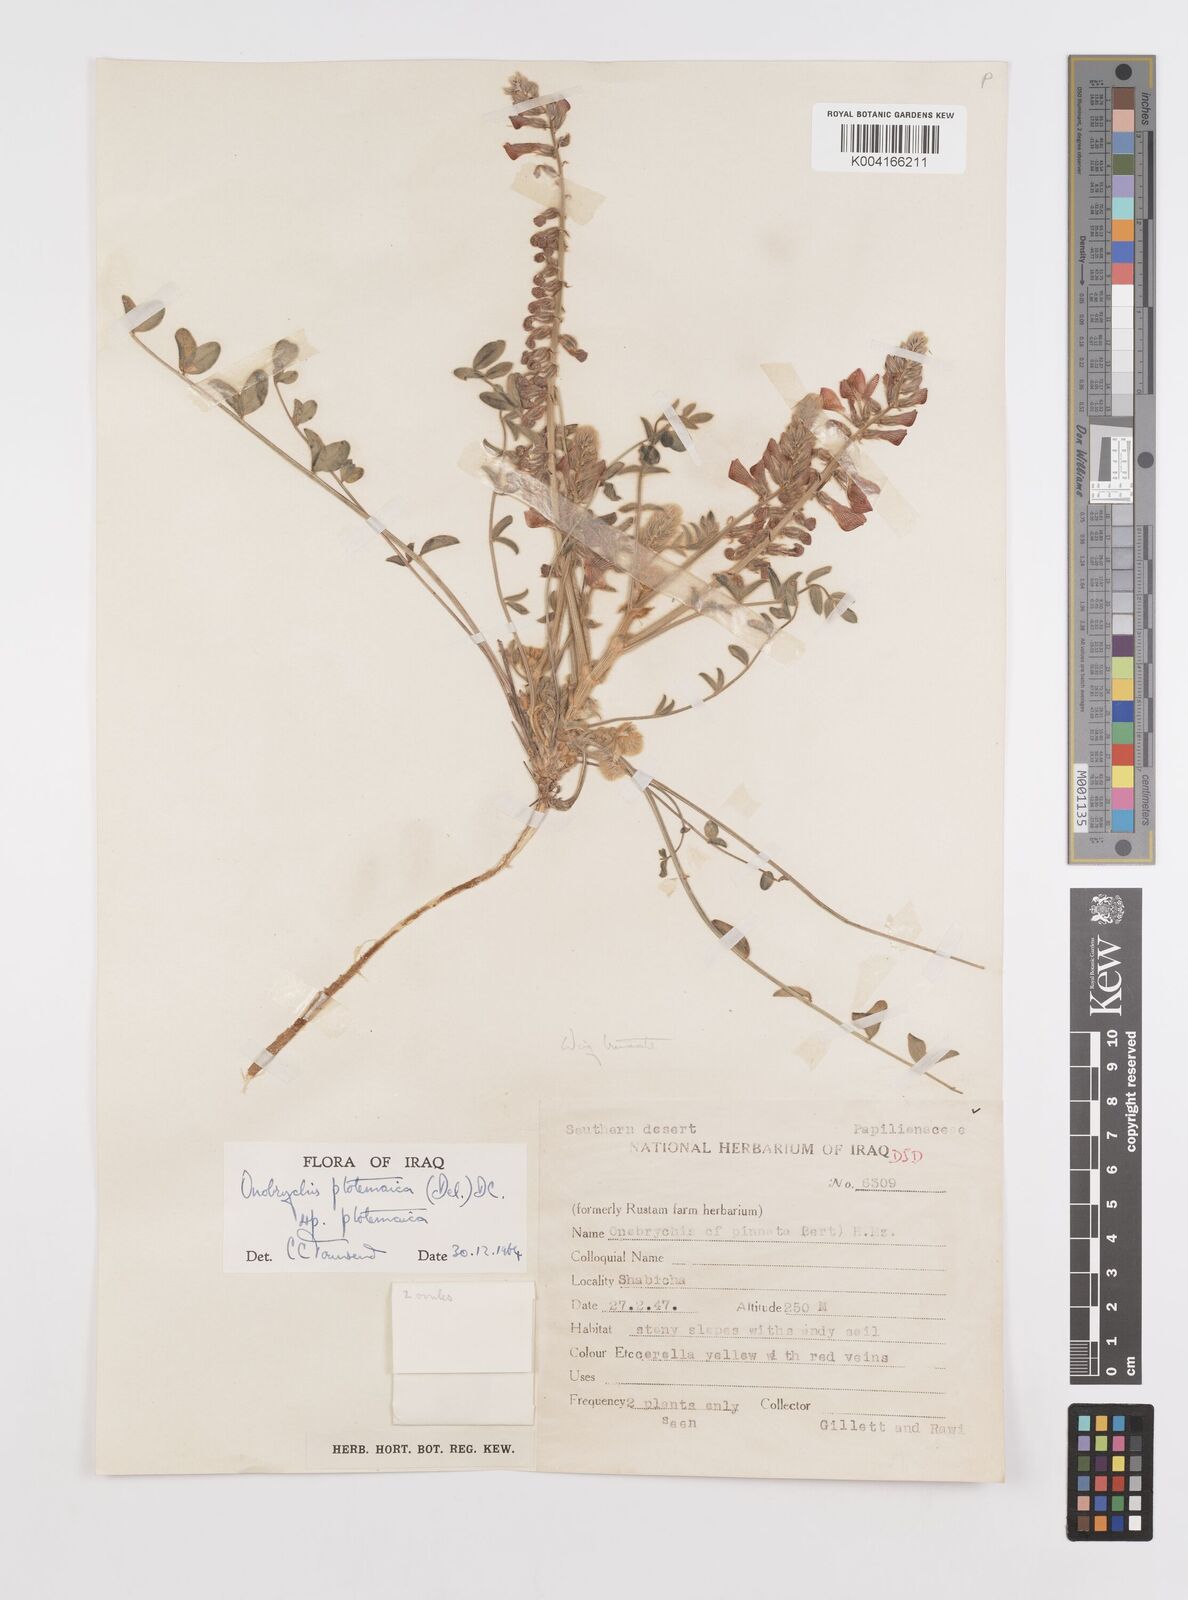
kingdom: Plantae
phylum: Tracheophyta
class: Magnoliopsida
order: Fabales
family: Fabaceae
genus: Onobrychis
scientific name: Onobrychis ptolemaica
